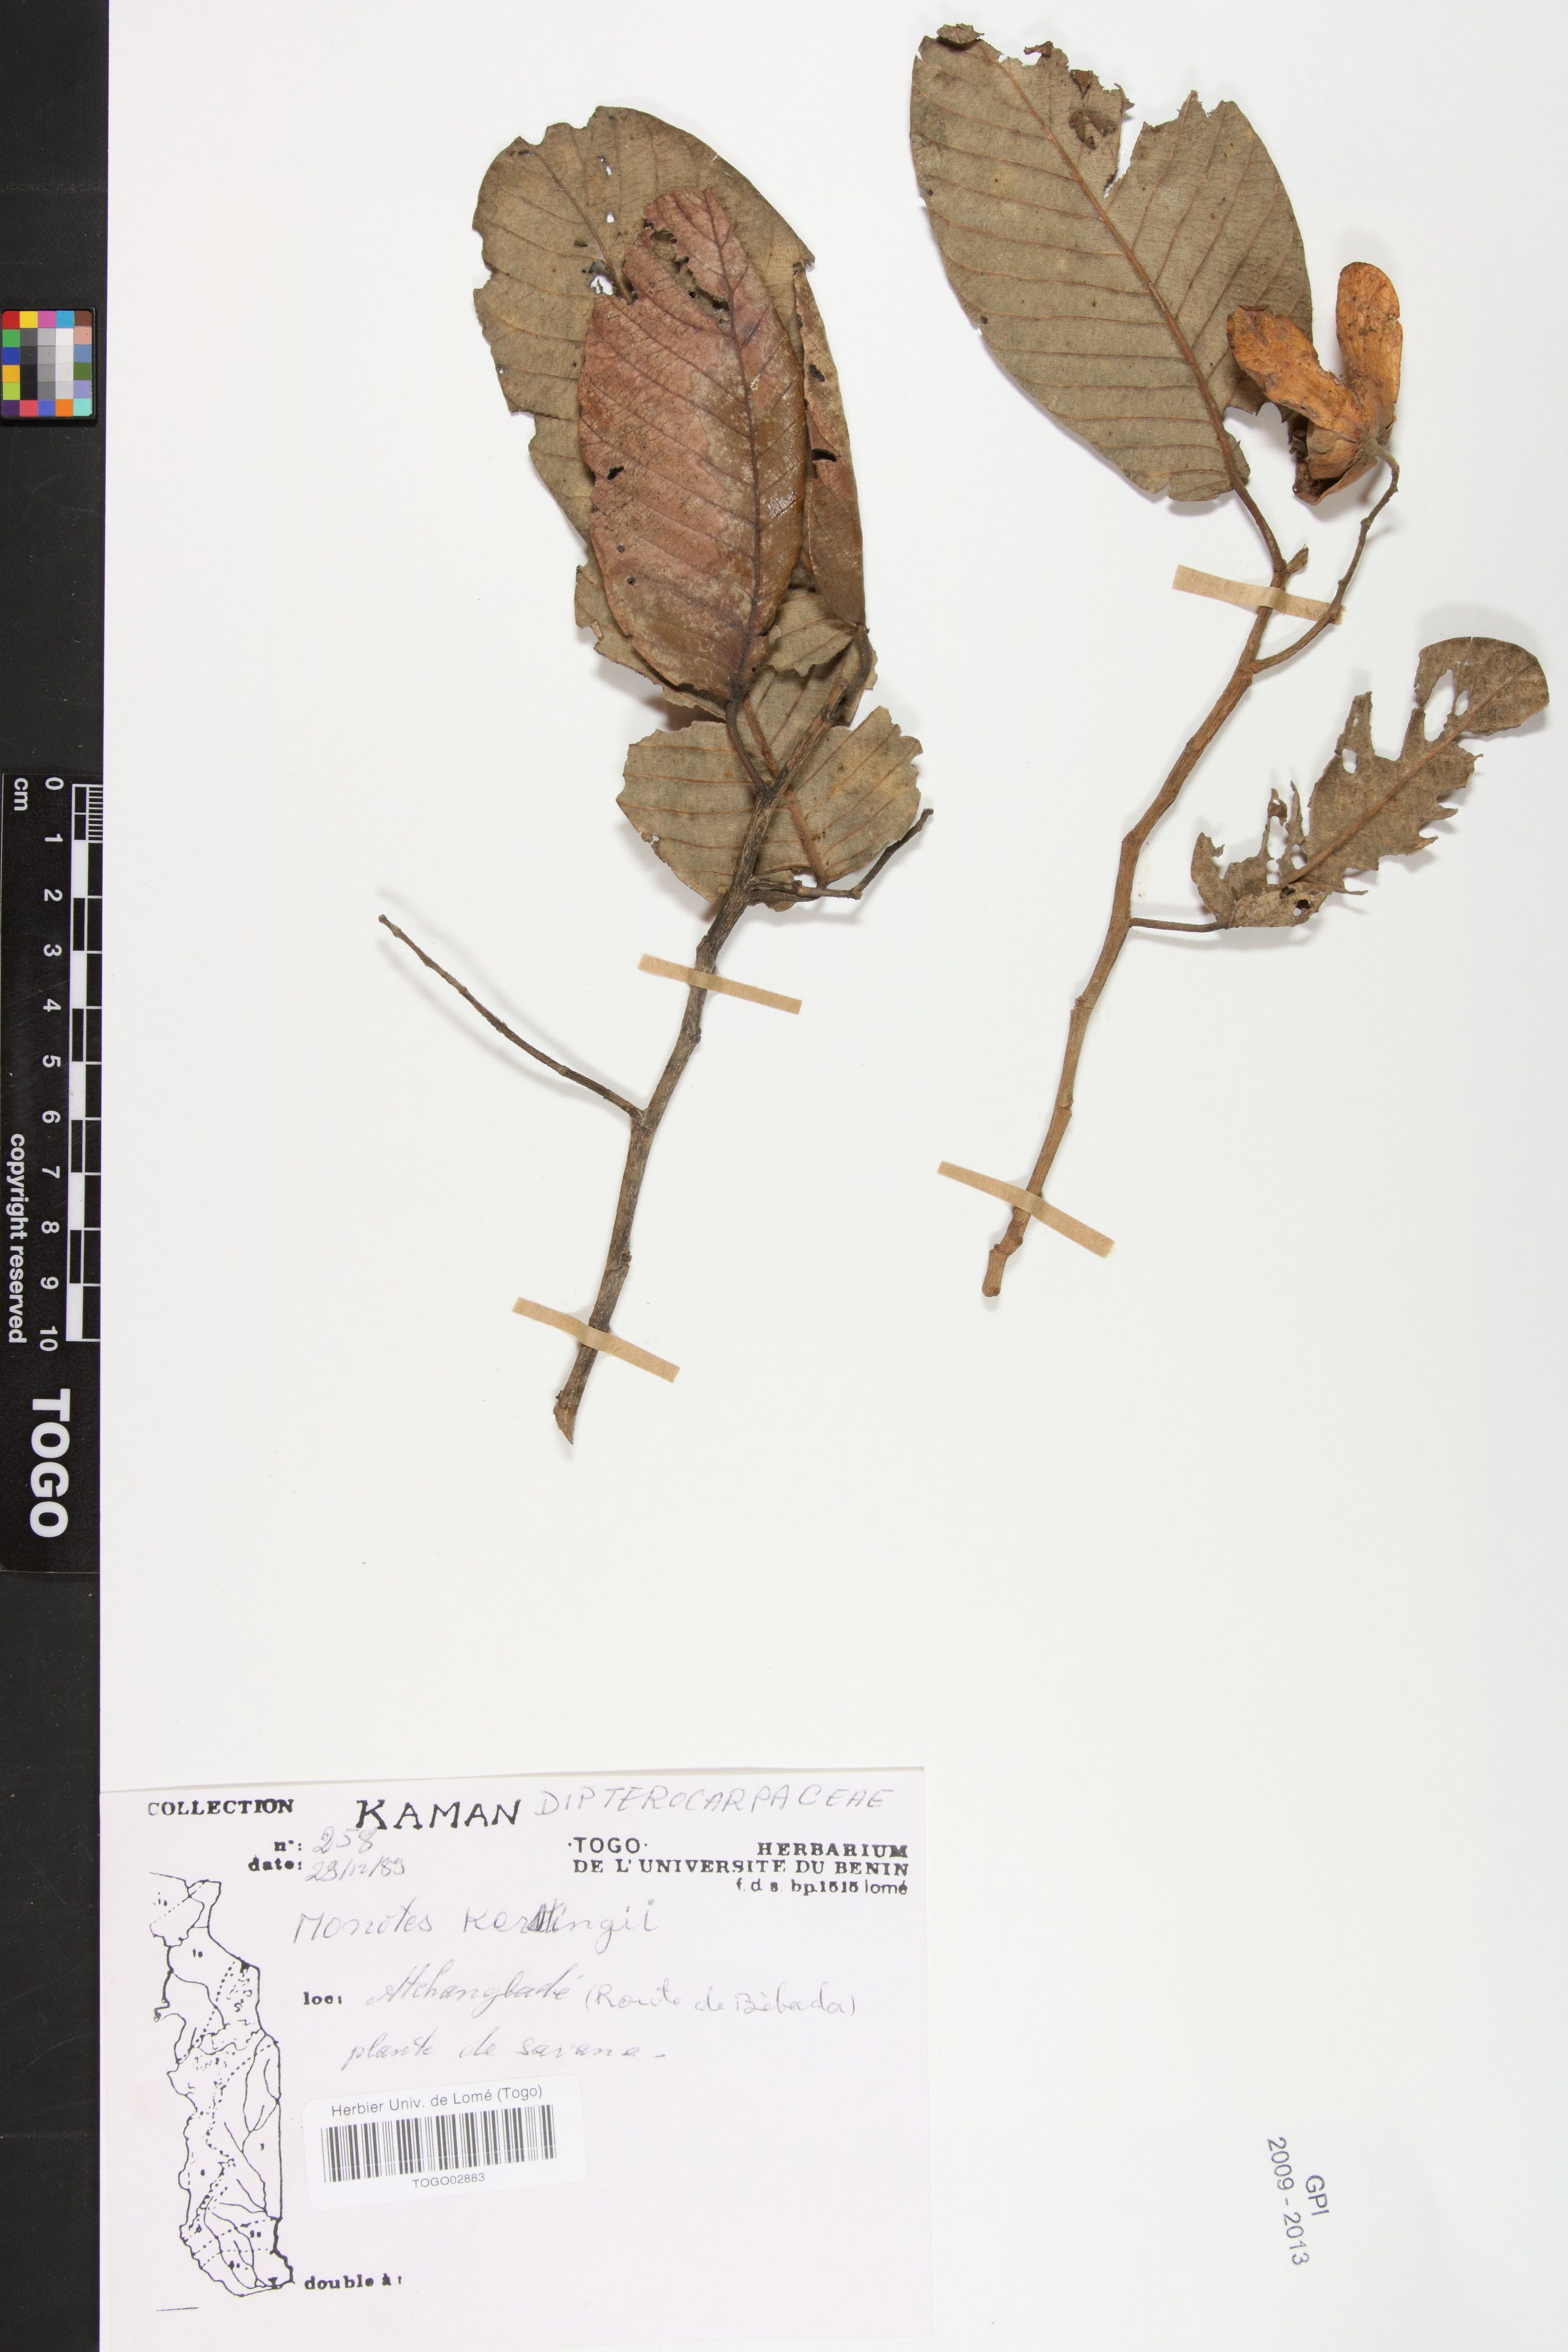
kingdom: Plantae
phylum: Tracheophyta
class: Magnoliopsida
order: Malvales
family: Dipterocarpaceae
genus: Monotes
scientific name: Monotes kerstingii
